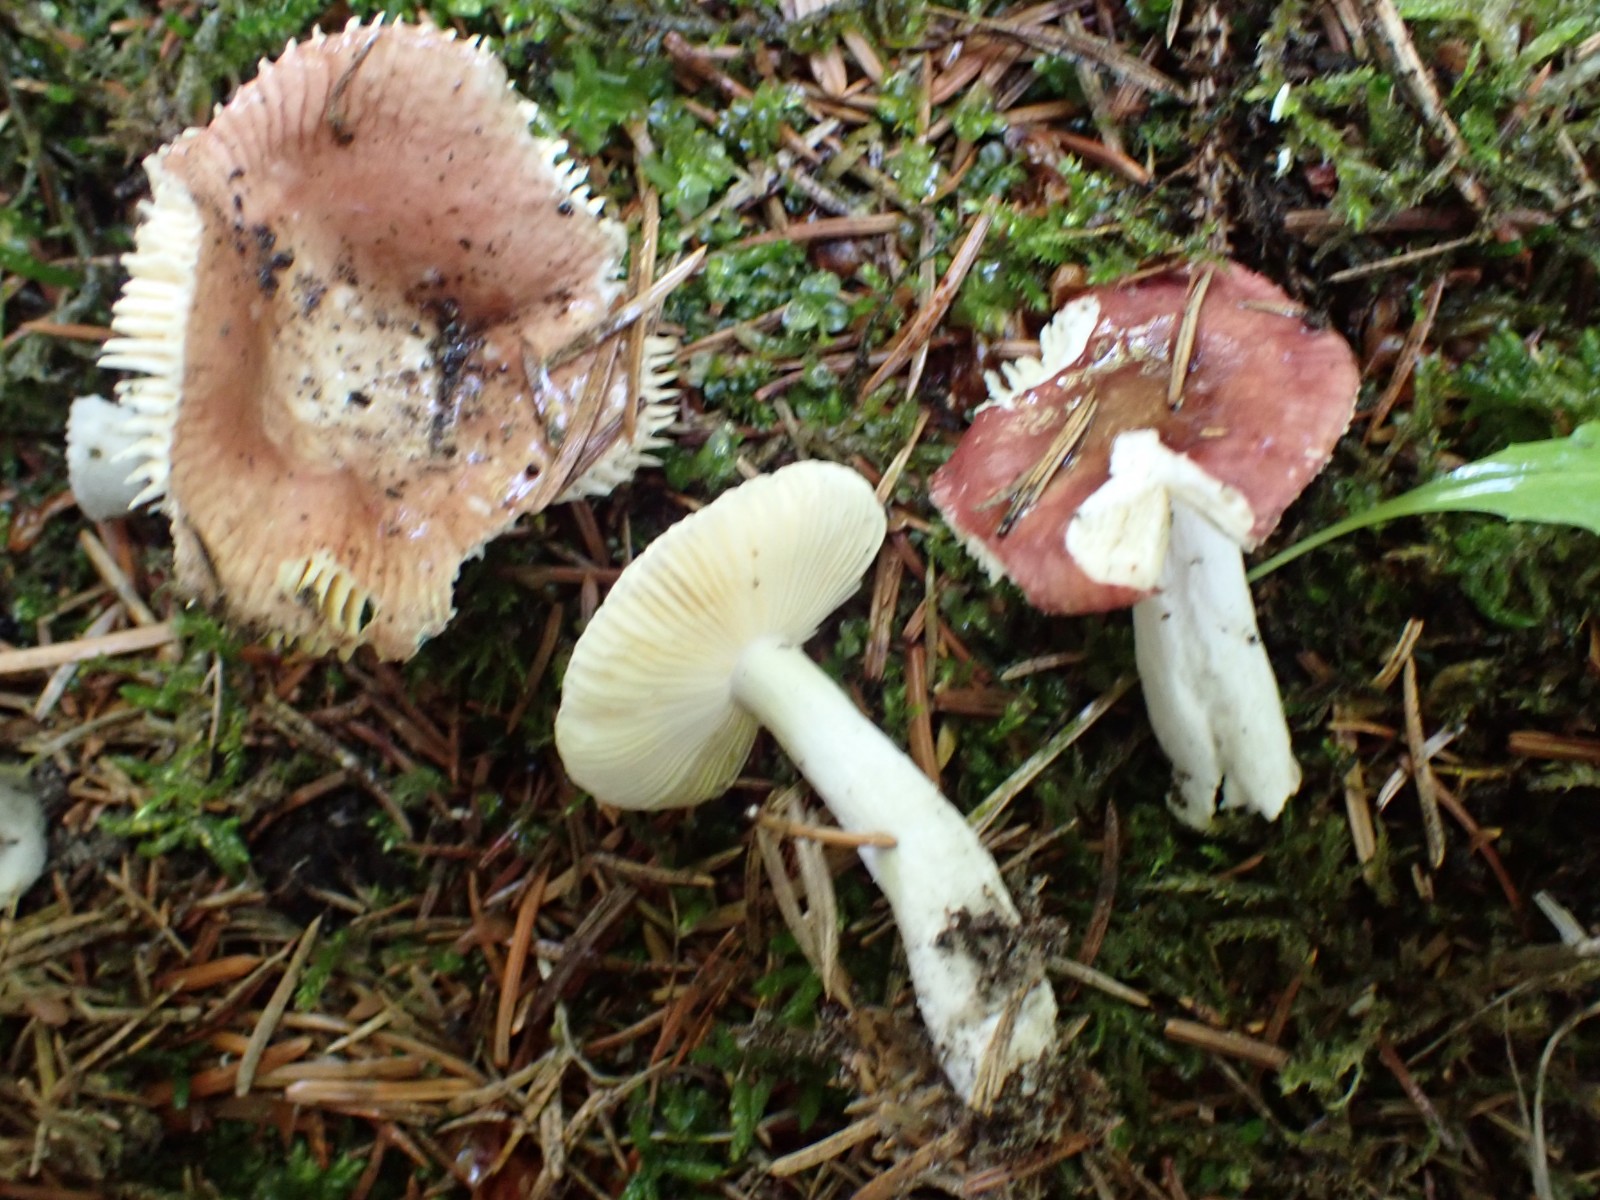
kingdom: Fungi
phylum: Basidiomycota
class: Agaricomycetes
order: Russulales
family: Russulaceae
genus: Russula
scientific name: Russula nauseosa
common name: spinkel skørhat
